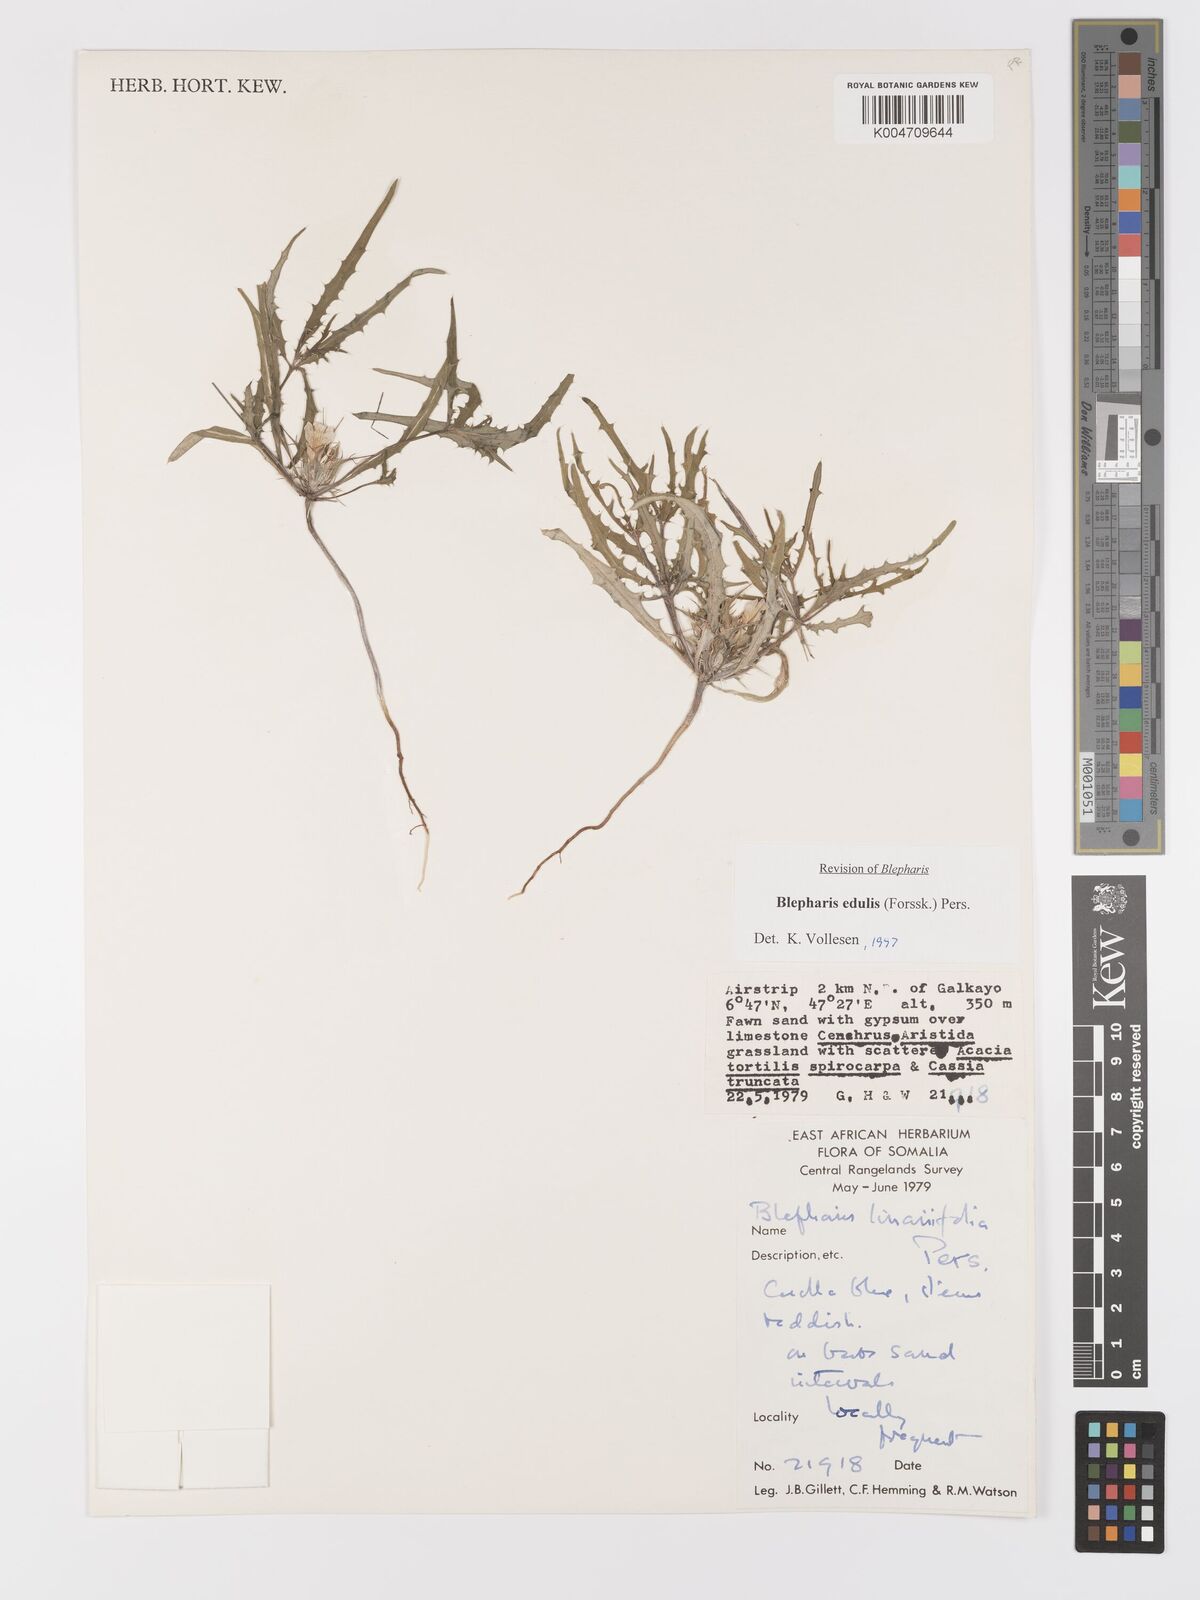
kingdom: Plantae
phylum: Tracheophyta
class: Magnoliopsida
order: Lamiales
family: Acanthaceae
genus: Blepharis
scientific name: Blepharis edulis
